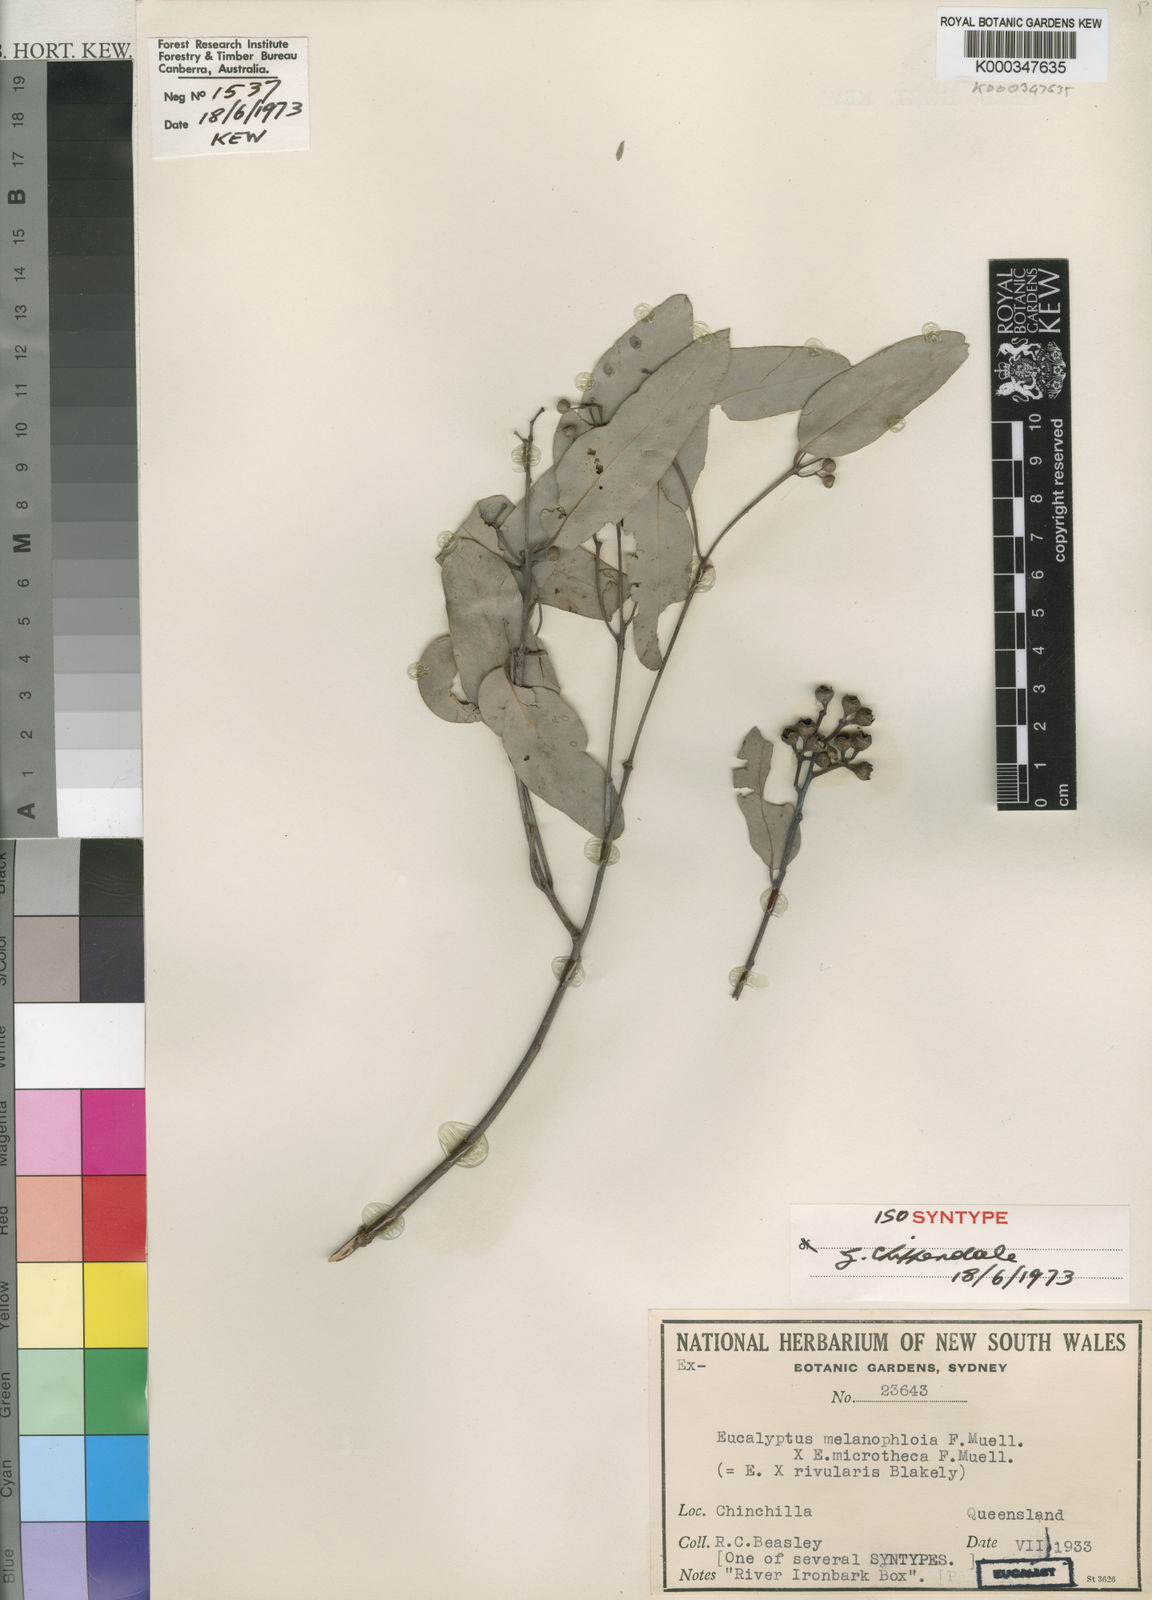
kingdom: Plantae
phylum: Tracheophyta
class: Magnoliopsida
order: Myrtales
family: Myrtaceae
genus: Eucalyptus
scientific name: Eucalyptus rivularis
